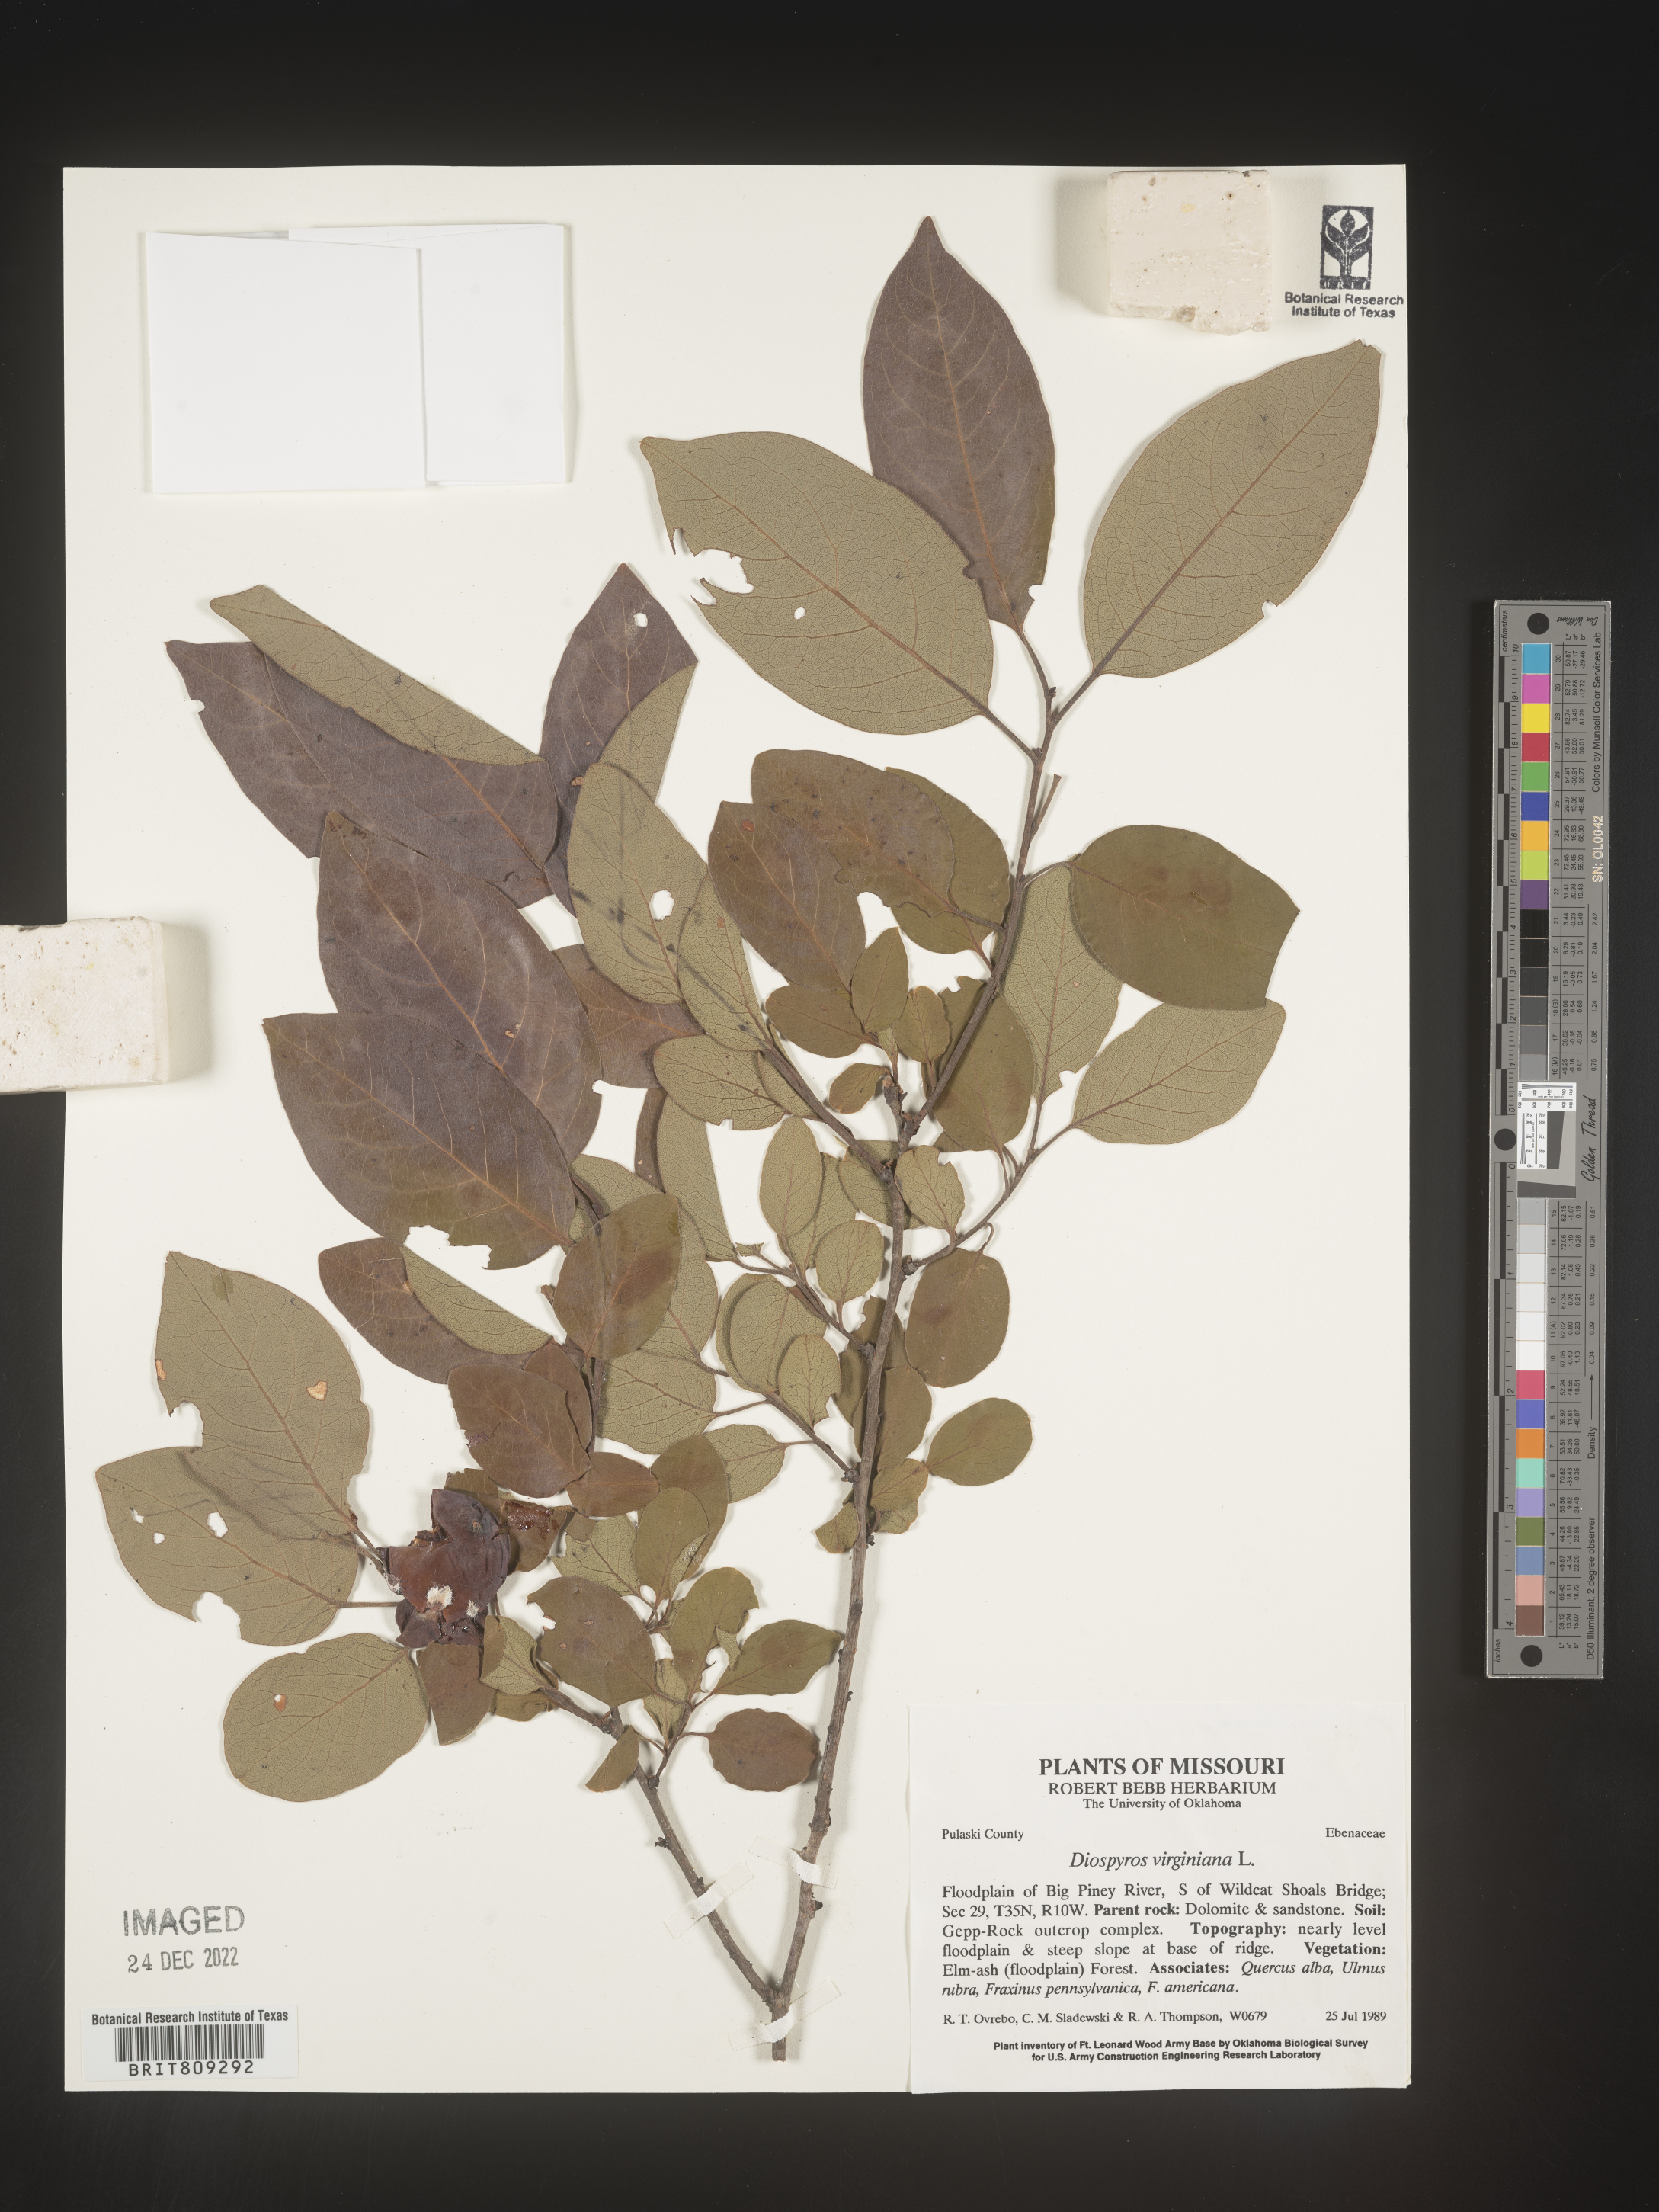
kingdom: Plantae
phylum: Tracheophyta
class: Magnoliopsida
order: Ericales
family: Ebenaceae
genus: Diospyros
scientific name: Diospyros virginiana
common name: Persimmon
